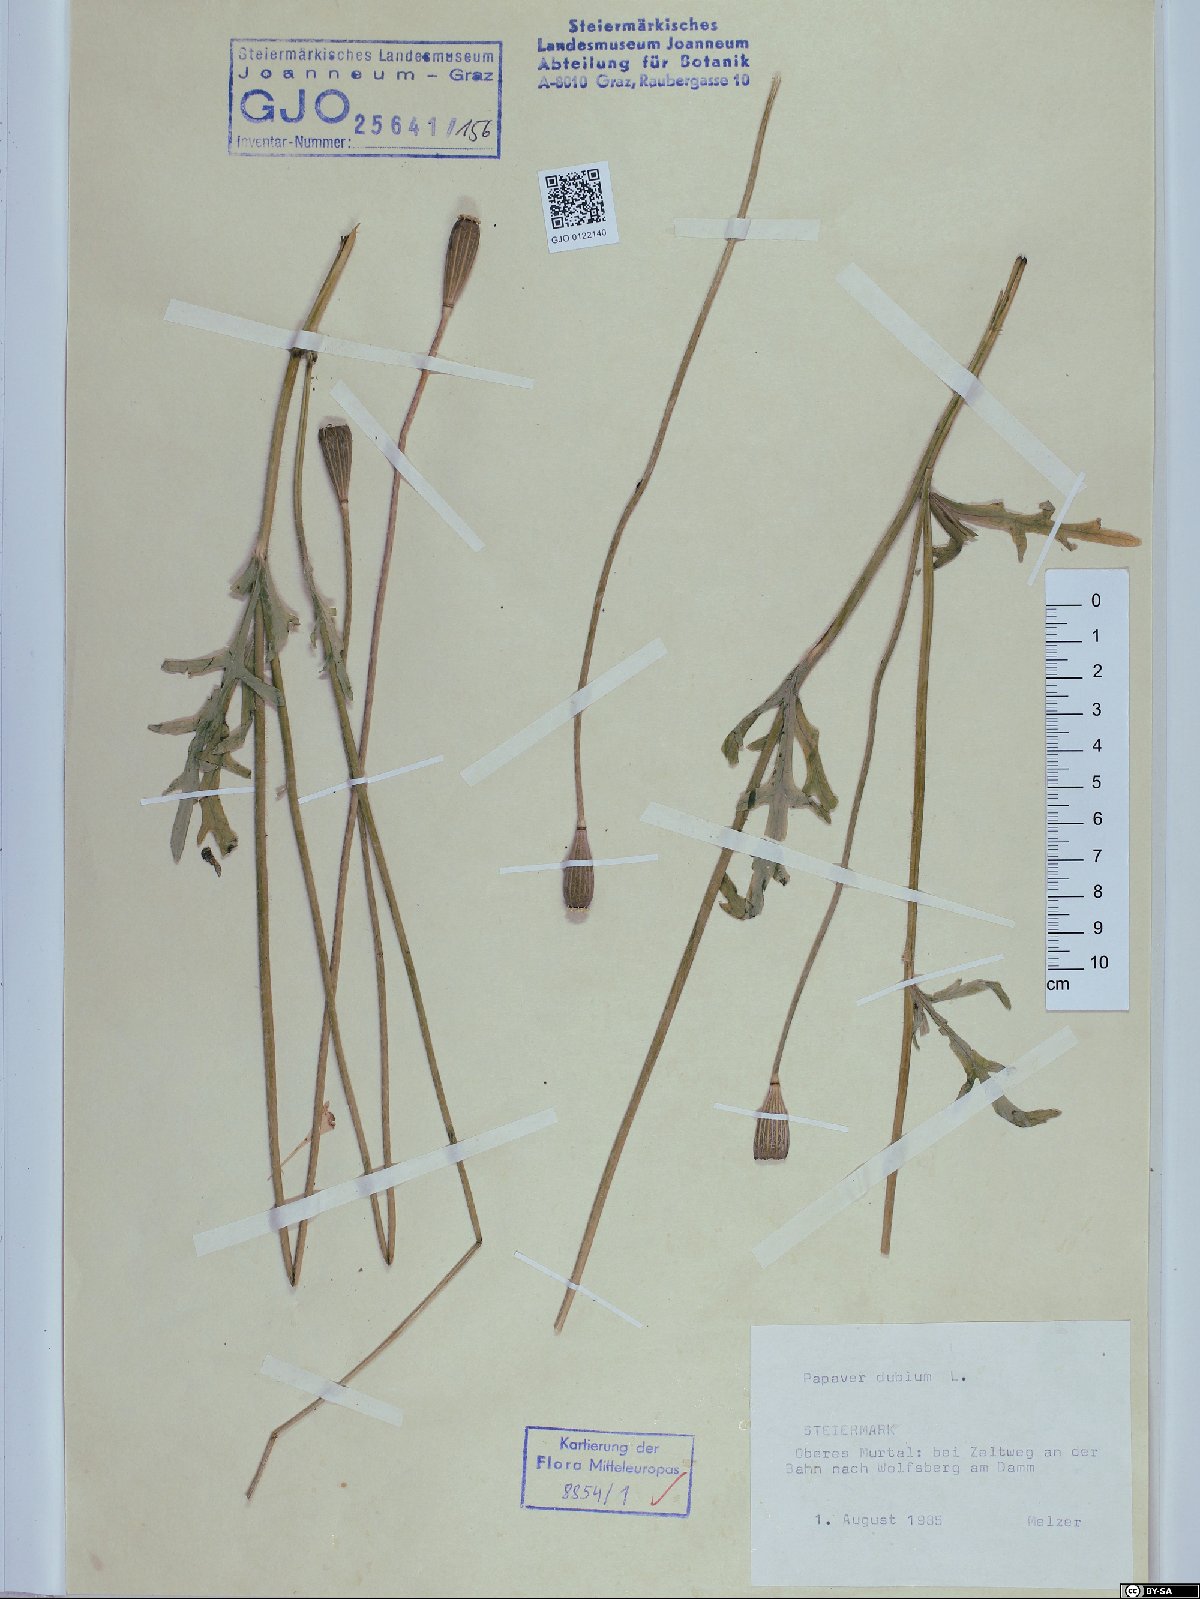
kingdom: Plantae
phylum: Tracheophyta
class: Magnoliopsida
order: Ranunculales
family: Papaveraceae
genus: Papaver
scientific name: Papaver dubium
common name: Long-headed poppy
